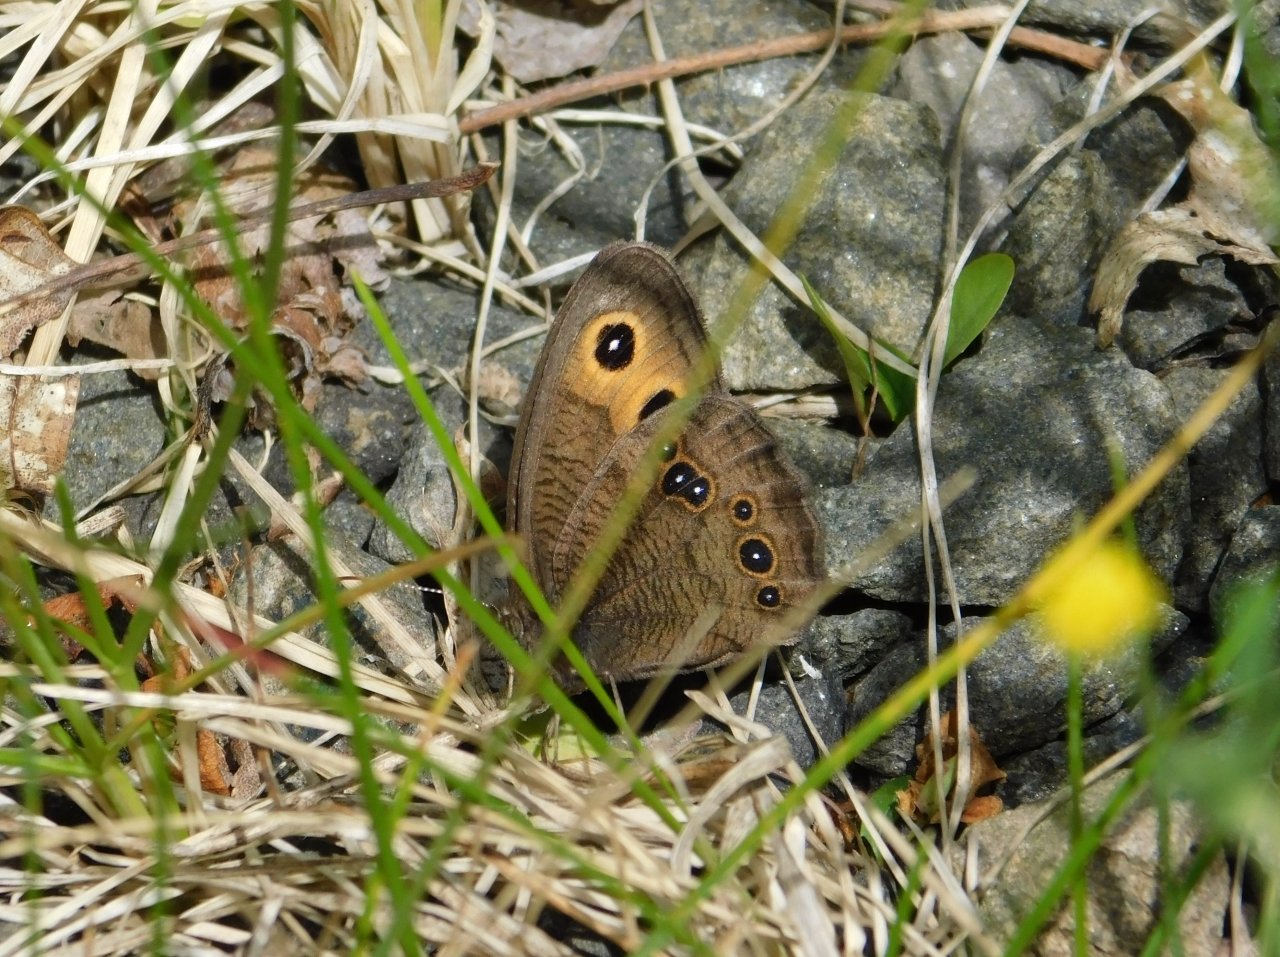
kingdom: Animalia
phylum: Arthropoda
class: Insecta
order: Lepidoptera
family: Nymphalidae
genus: Cercyonis
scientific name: Cercyonis pegala
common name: Common Wood-Nymph
